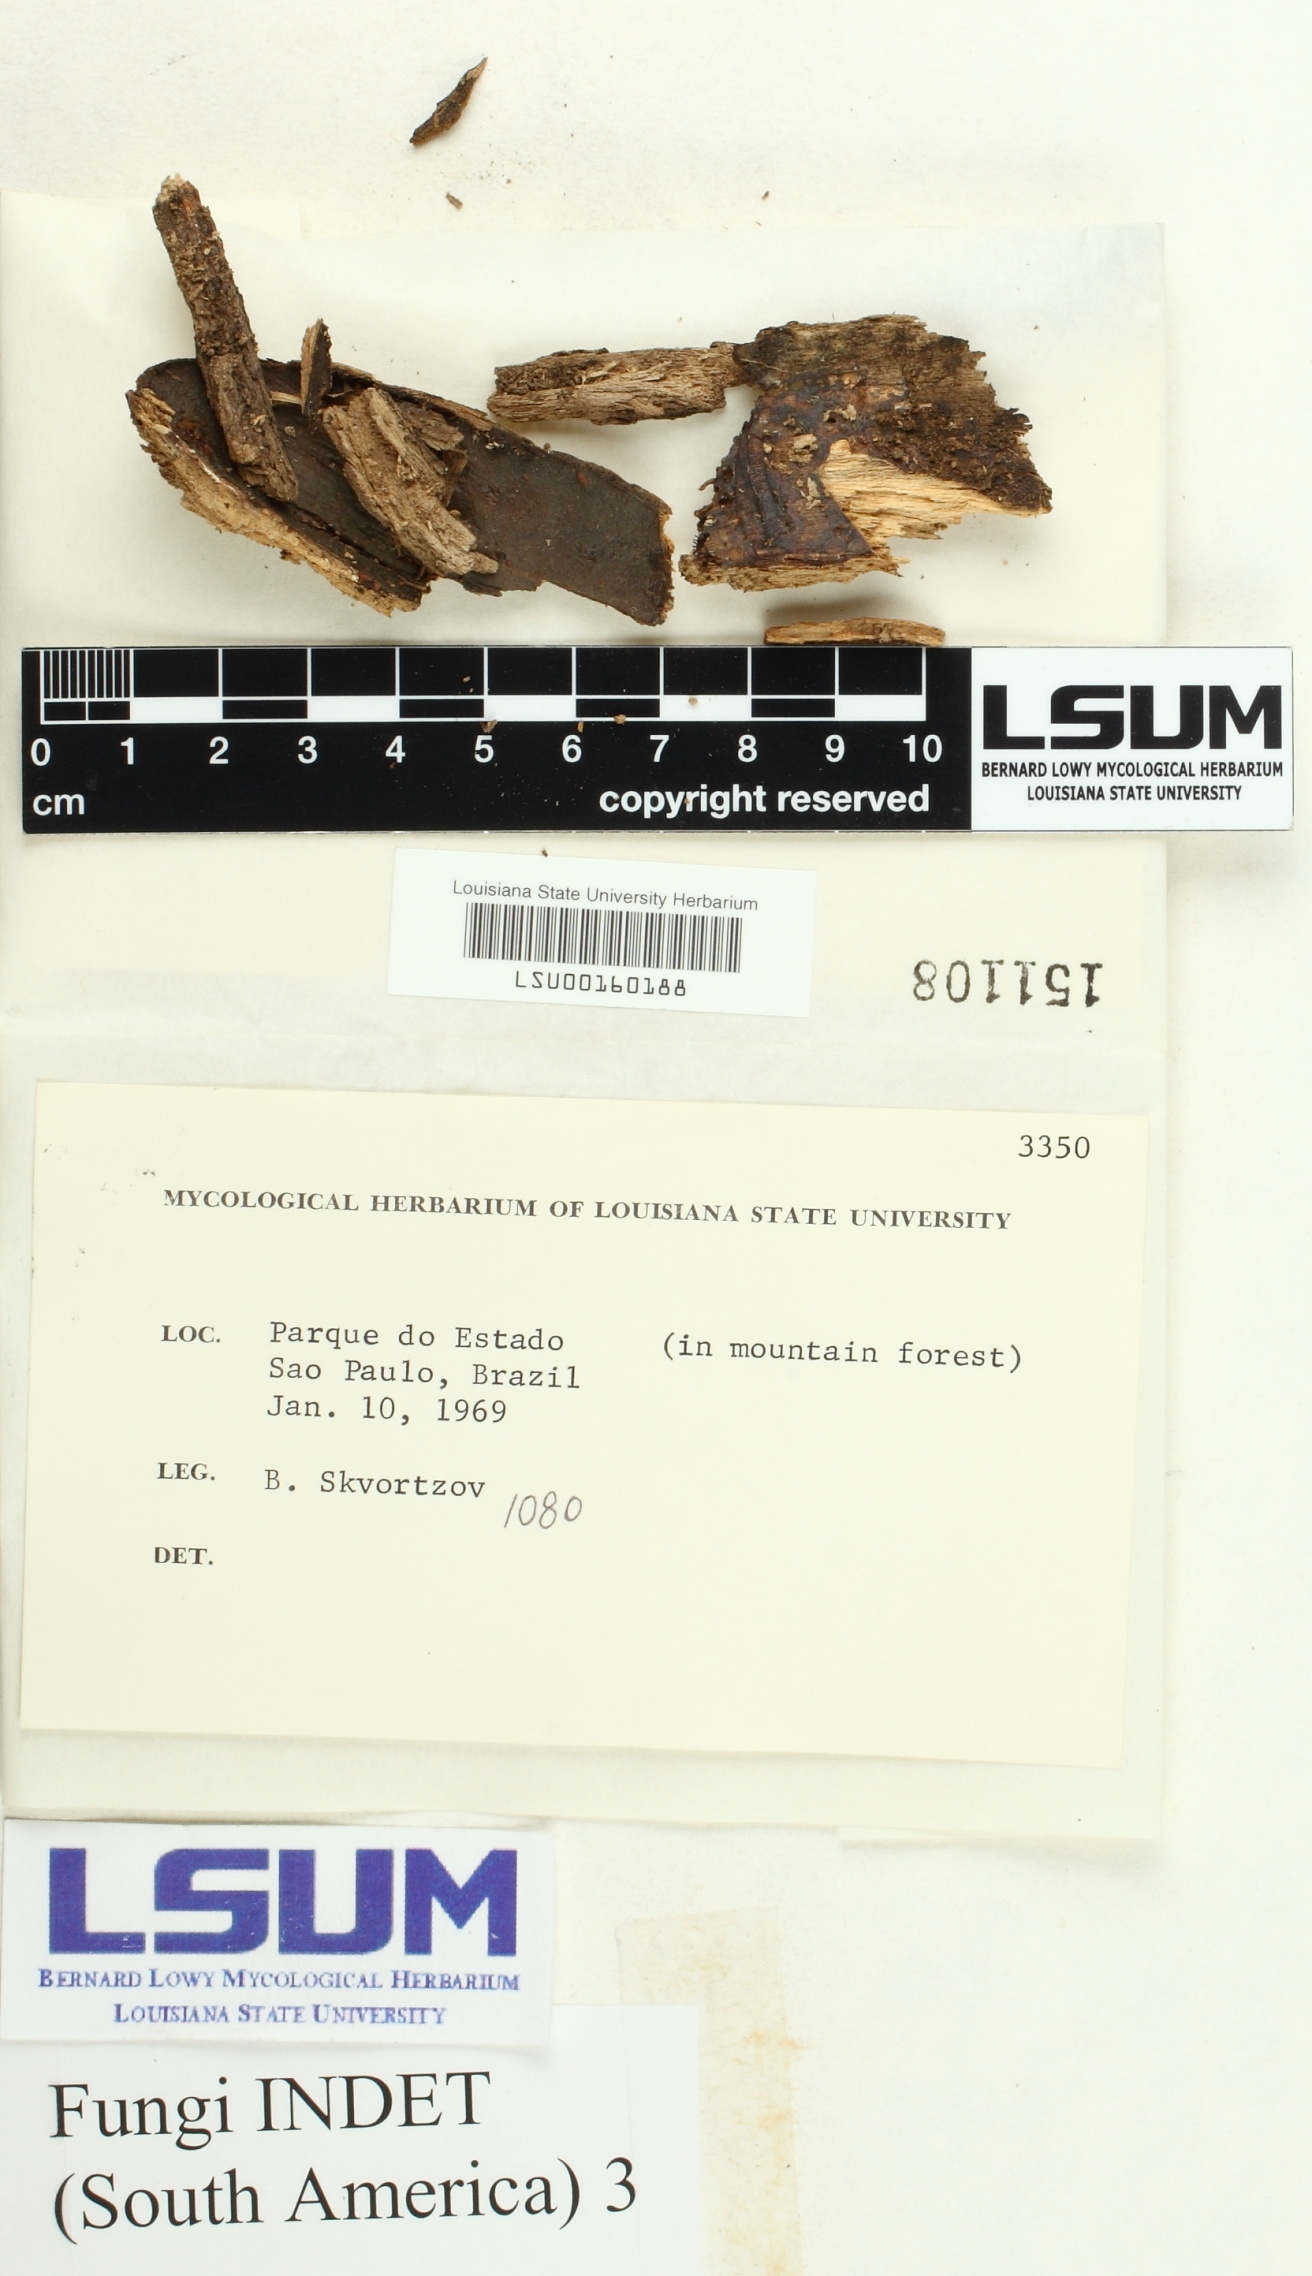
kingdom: Fungi
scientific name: Fungi
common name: Fungi
